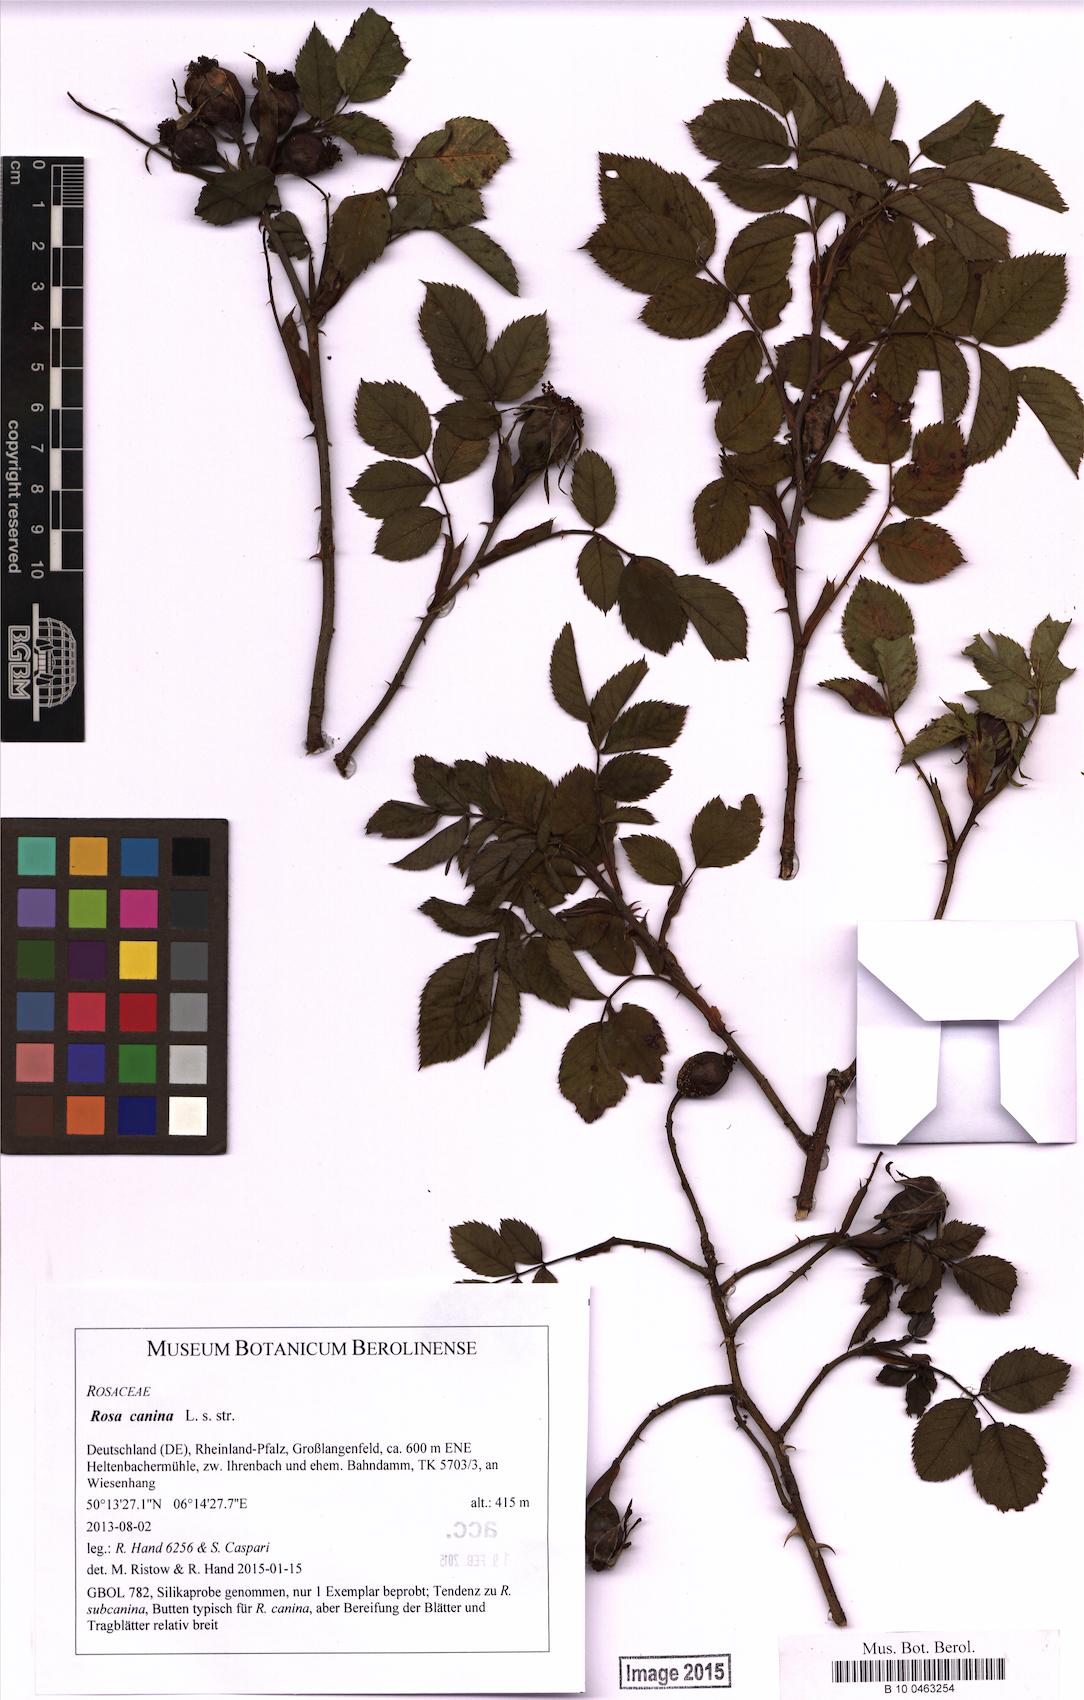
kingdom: Plantae
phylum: Tracheophyta
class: Magnoliopsida
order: Rosales
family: Rosaceae
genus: Rosa
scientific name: Rosa canina
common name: Dog rose
